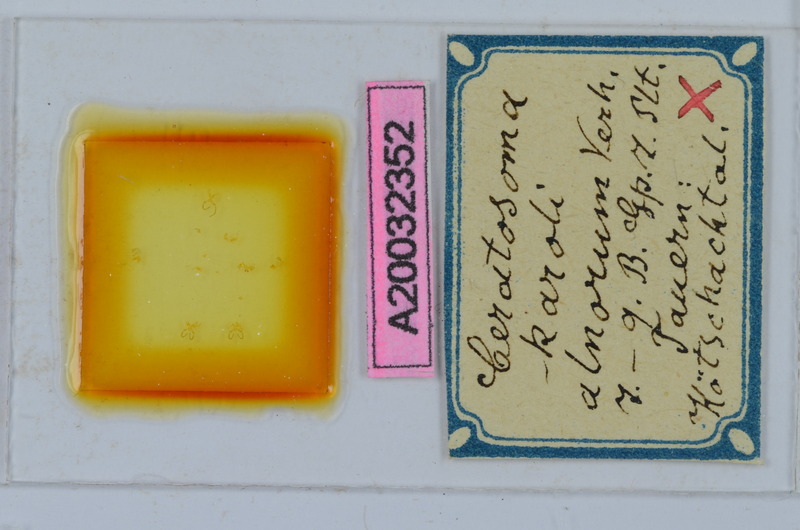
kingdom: Animalia
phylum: Arthropoda
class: Diplopoda
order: Chordeumatida
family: Craspedosomatidae
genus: Ochogona
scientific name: Ochogona caroli
